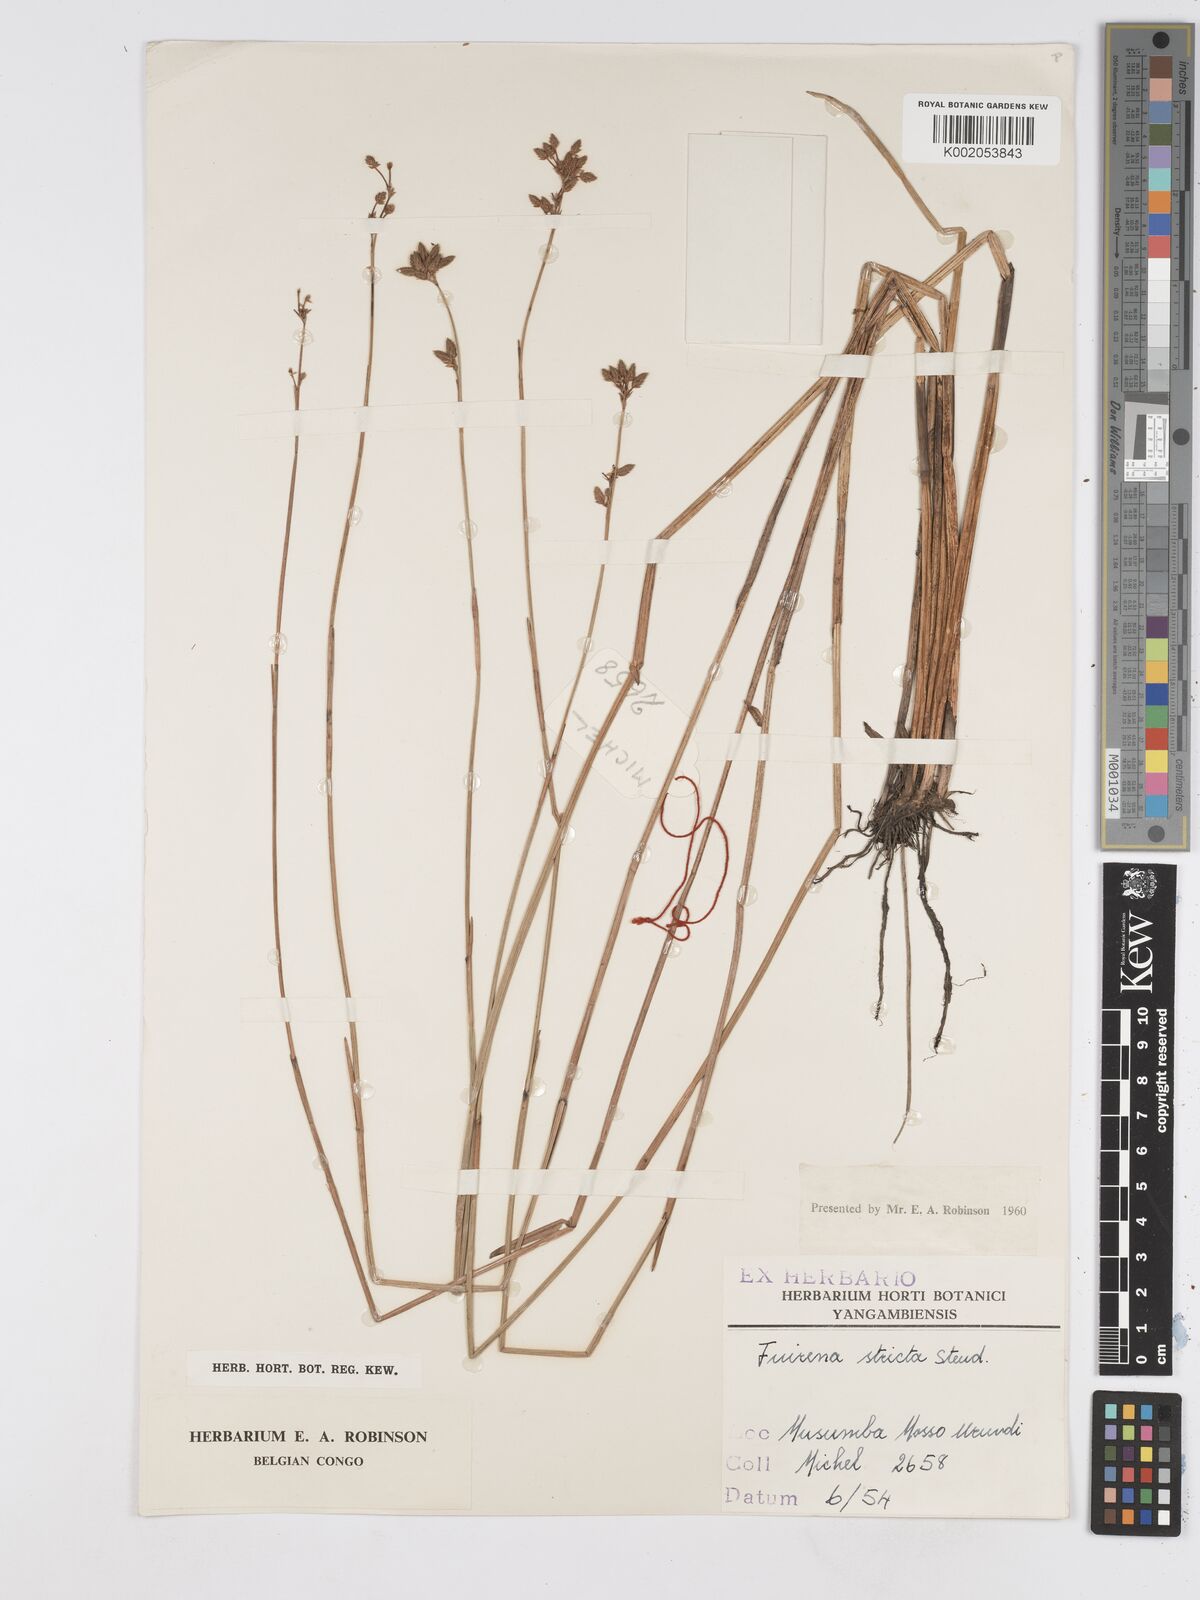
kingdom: Plantae
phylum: Tracheophyta
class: Liliopsida
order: Poales
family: Cyperaceae
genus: Fuirena
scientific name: Fuirena stricta
